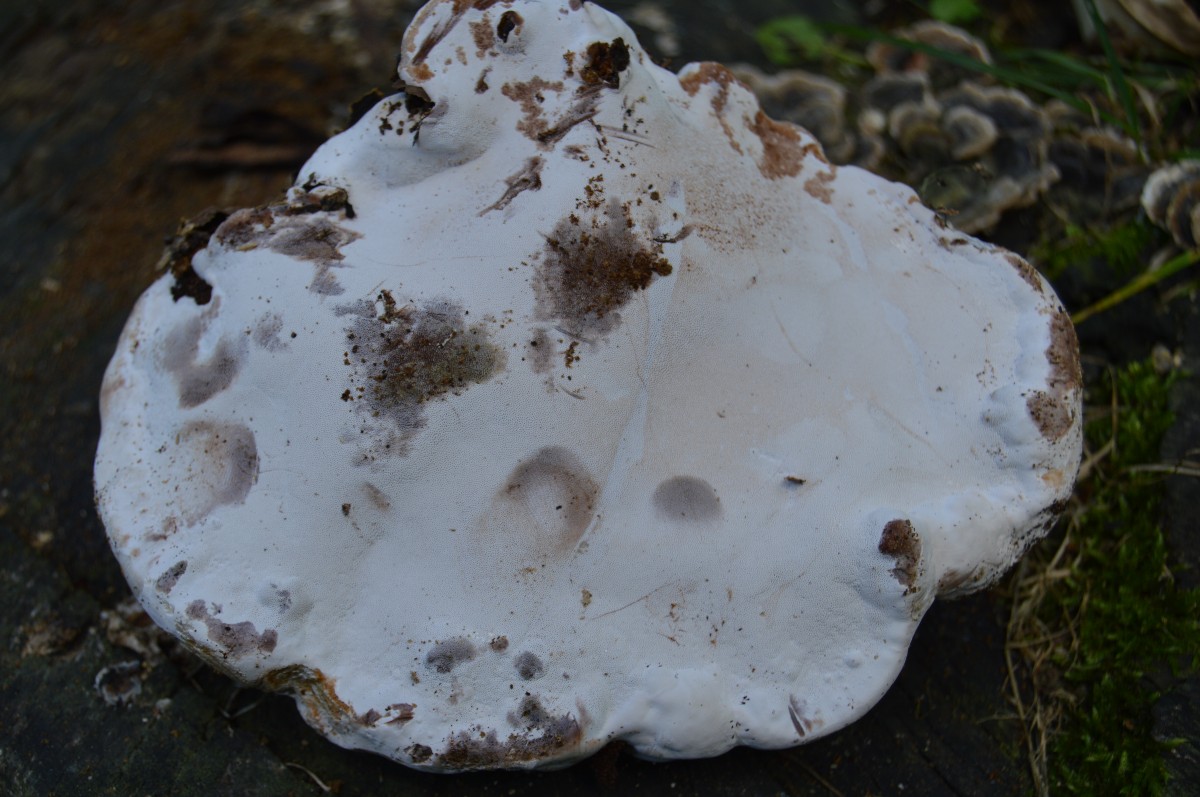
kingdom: Fungi
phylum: Basidiomycota
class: Agaricomycetes
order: Polyporales
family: Polyporaceae
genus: Ganoderma
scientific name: Ganoderma pfeifferi
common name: kobberrød lakporesvamp
